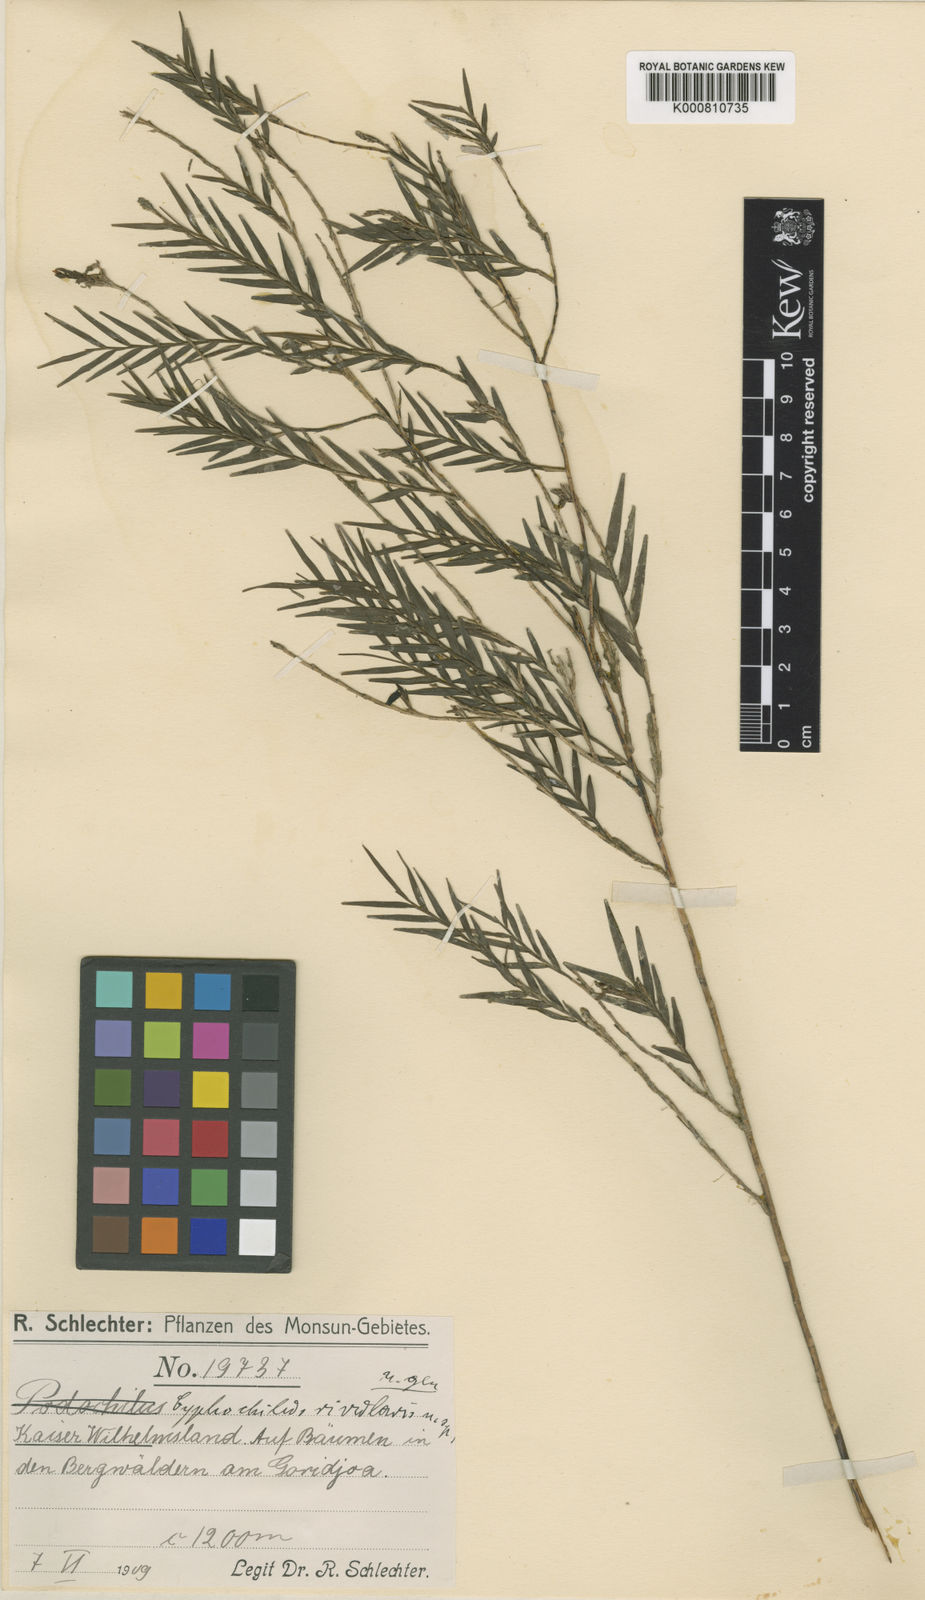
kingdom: Plantae
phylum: Tracheophyta
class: Liliopsida
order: Asparagales
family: Orchidaceae
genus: Appendicula
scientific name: Appendicula rivularis
